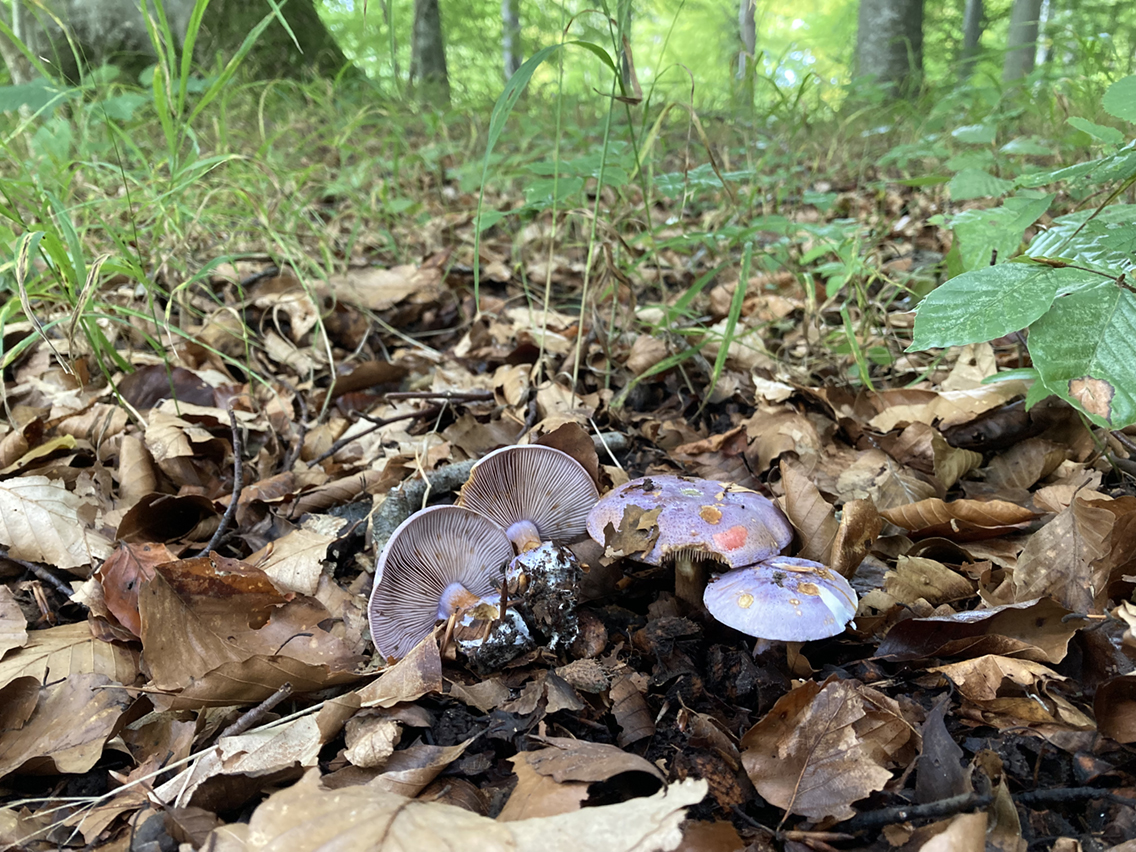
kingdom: Fungi
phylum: Basidiomycota
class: Agaricomycetes
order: Agaricales
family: Cortinariaceae
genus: Calonarius
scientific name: Calonarius sodagnitus
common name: violblå slørhat
